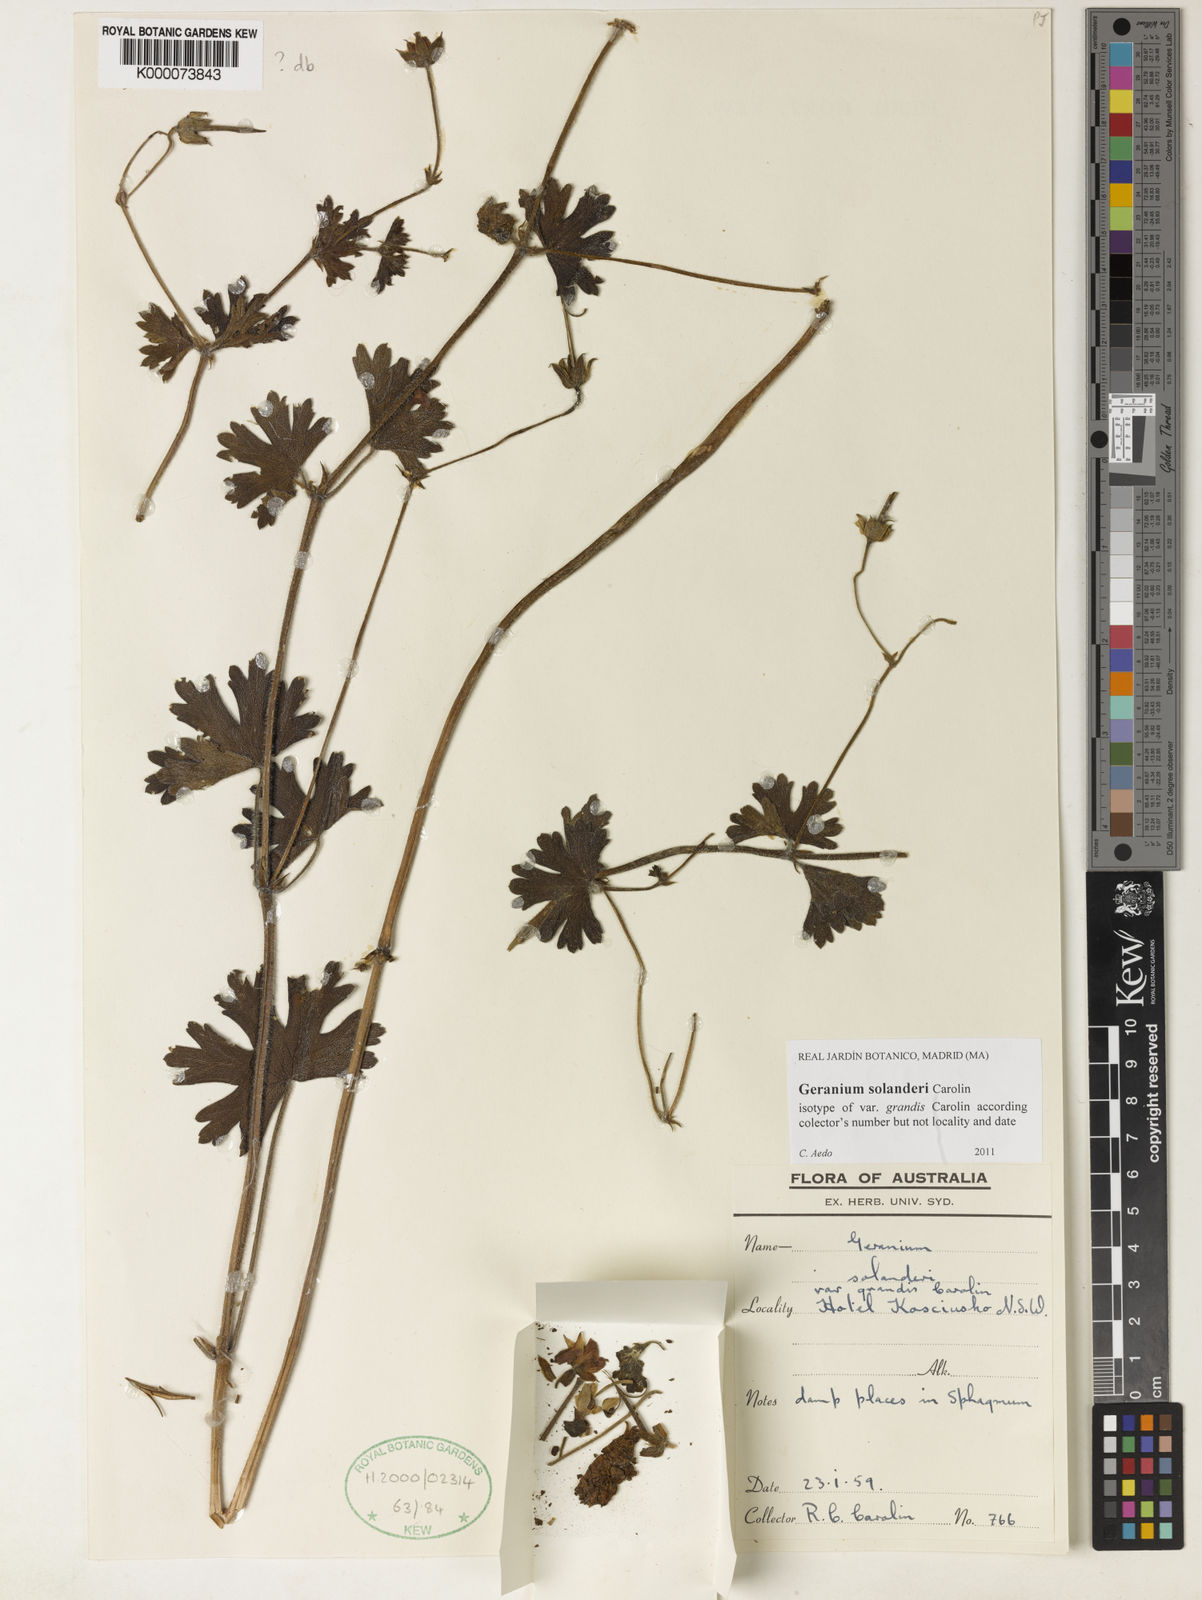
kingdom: Plantae
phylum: Tracheophyta
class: Magnoliopsida
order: Geraniales
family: Geraniaceae
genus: Geranium
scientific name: Geranium solanderi
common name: Solander's geranium
